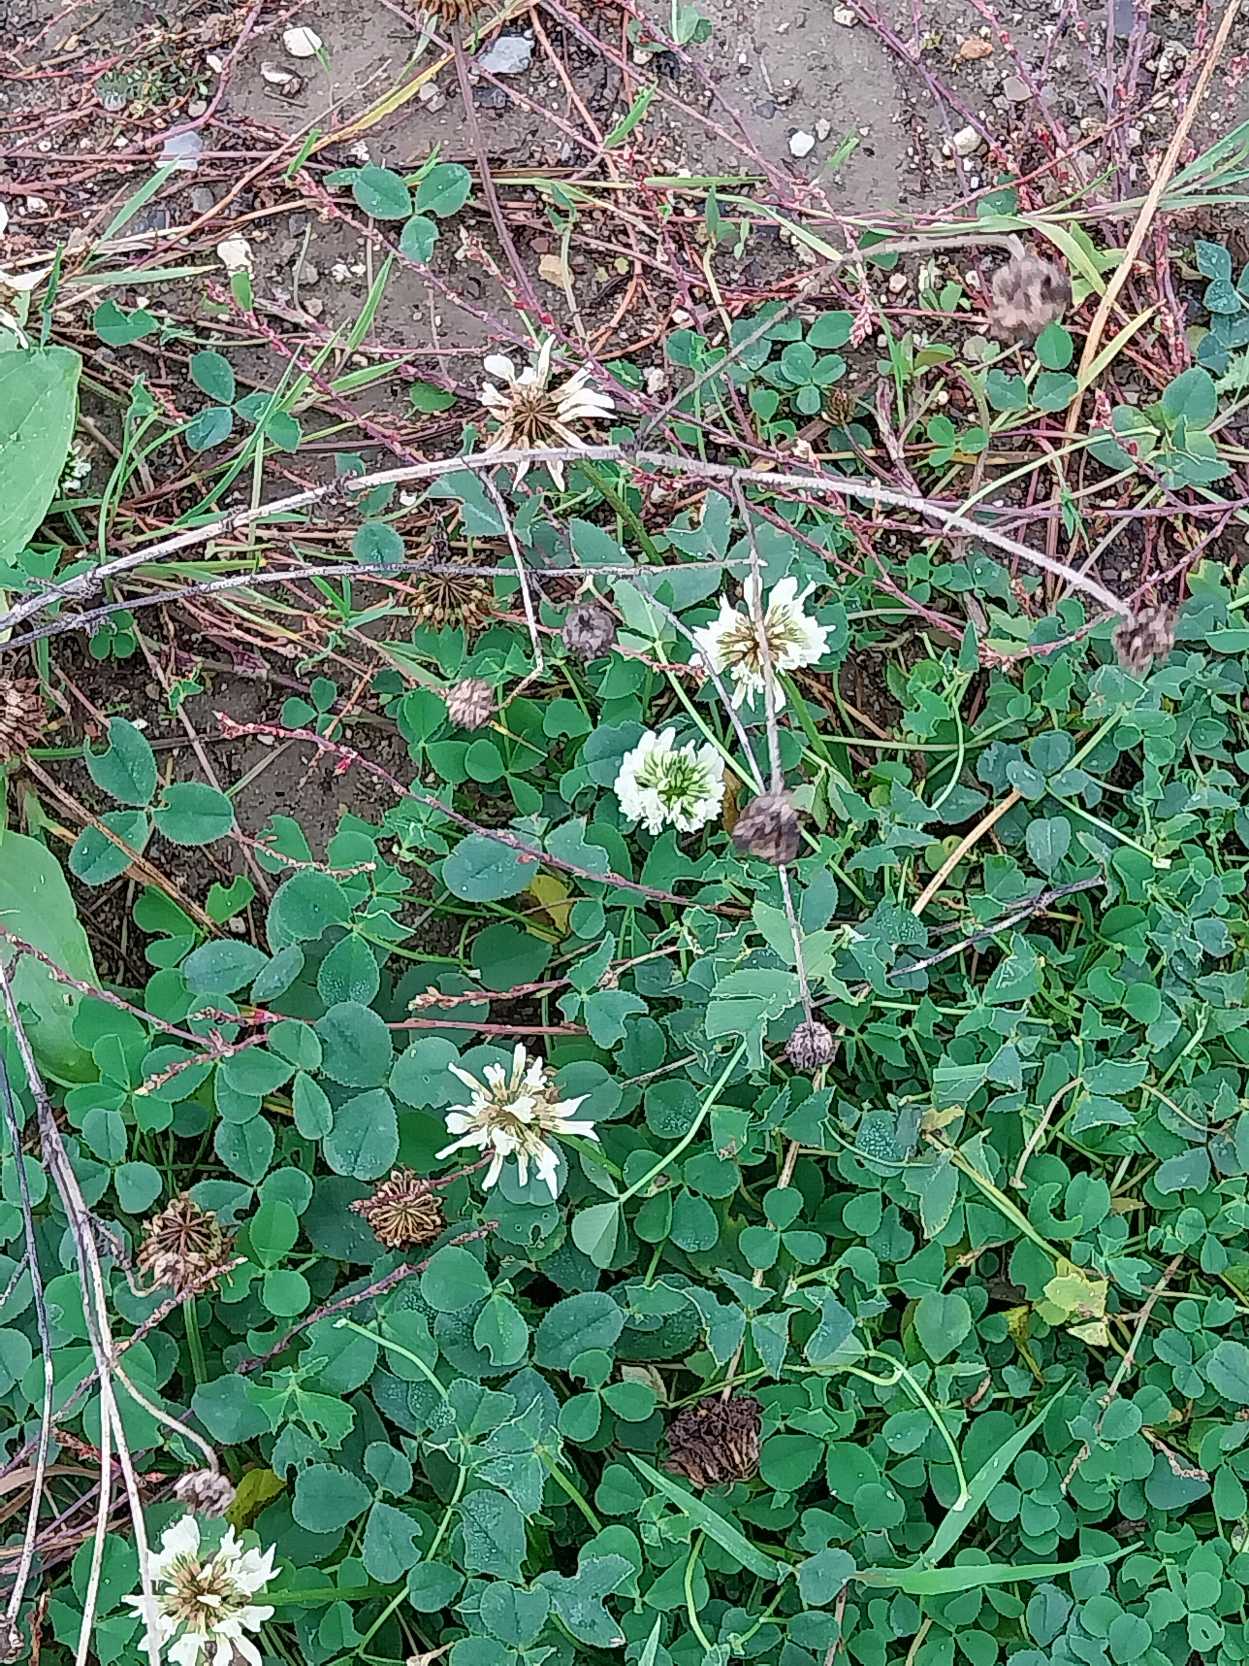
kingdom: Plantae
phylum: Tracheophyta
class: Magnoliopsida
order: Fabales
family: Fabaceae
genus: Trifolium
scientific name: Trifolium repens
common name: Hvid-kløver
